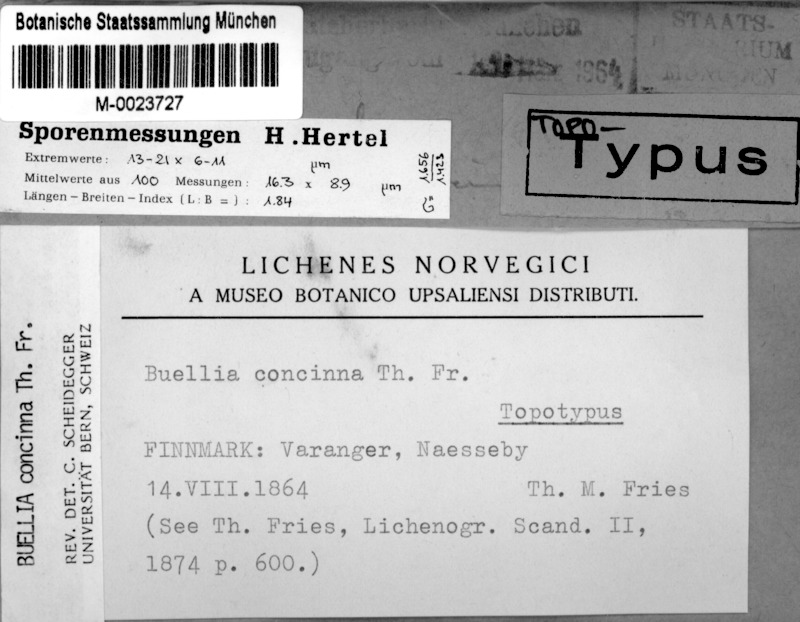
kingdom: Fungi
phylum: Ascomycota
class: Lecanoromycetes
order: Caliciales
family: Caliciaceae
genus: Tetramelas
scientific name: Tetramelas concinnus
